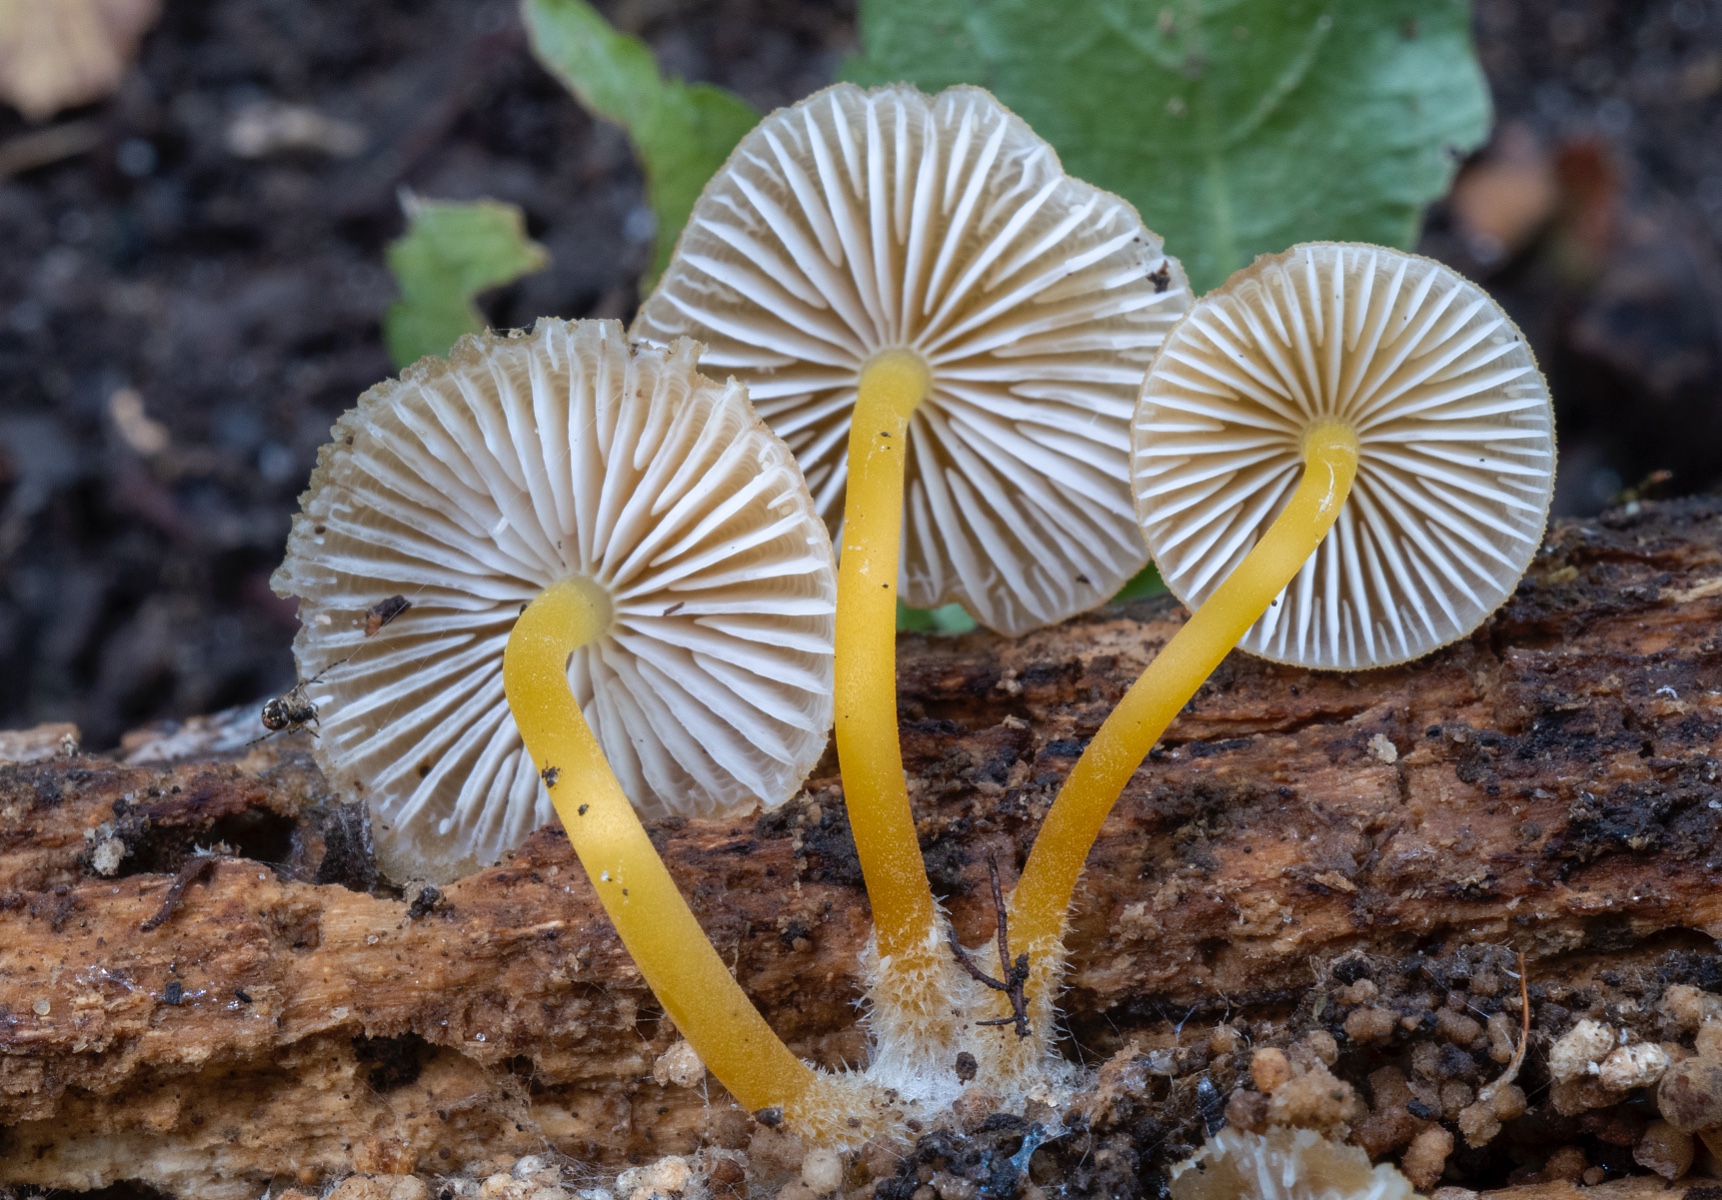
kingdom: Fungi
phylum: Basidiomycota
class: Agaricomycetes
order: Agaricales
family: Mycenaceae
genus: Mycena
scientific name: Mycena renati
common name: smuk huesvamp
